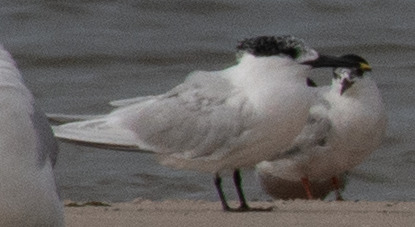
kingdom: Animalia
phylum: Chordata
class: Aves
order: Charadriiformes
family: Laridae
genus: Thalasseus
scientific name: Thalasseus sandvicensis
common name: Splitterne
